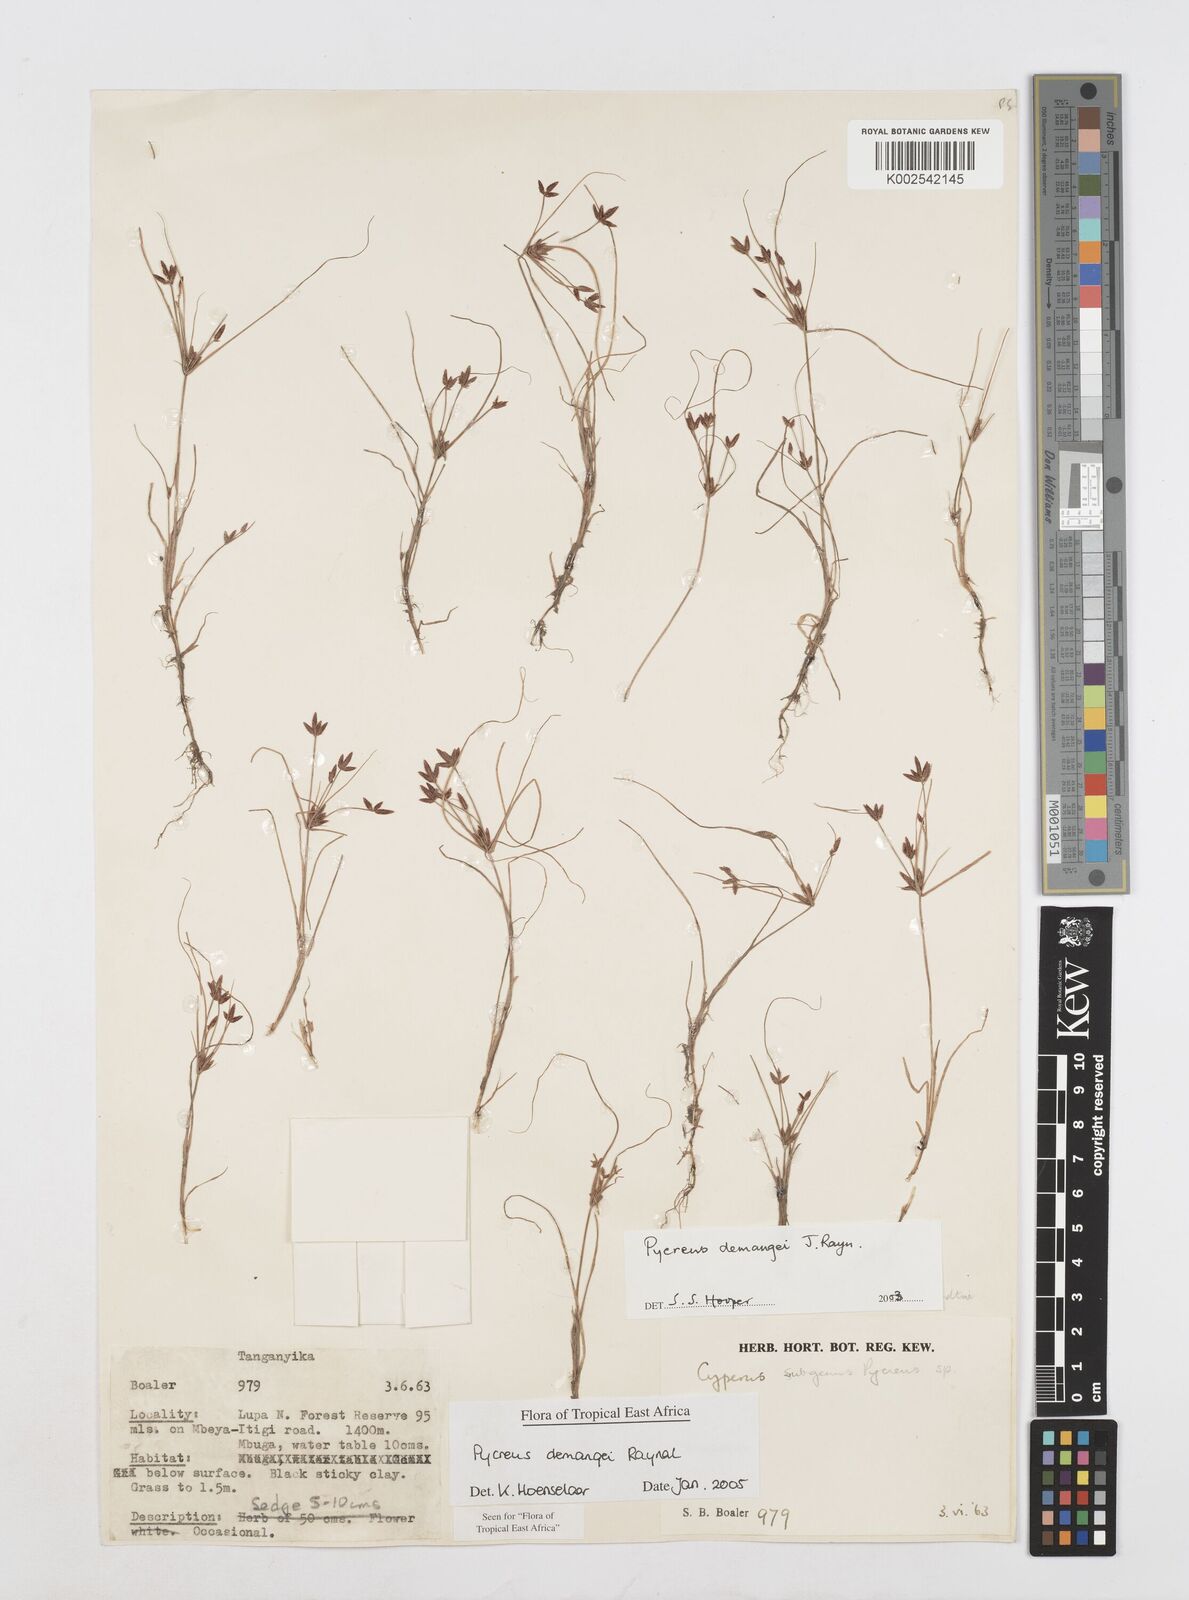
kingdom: Plantae
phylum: Tracheophyta
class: Liliopsida
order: Poales
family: Cyperaceae
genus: Cyperus
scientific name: Cyperus demangei
